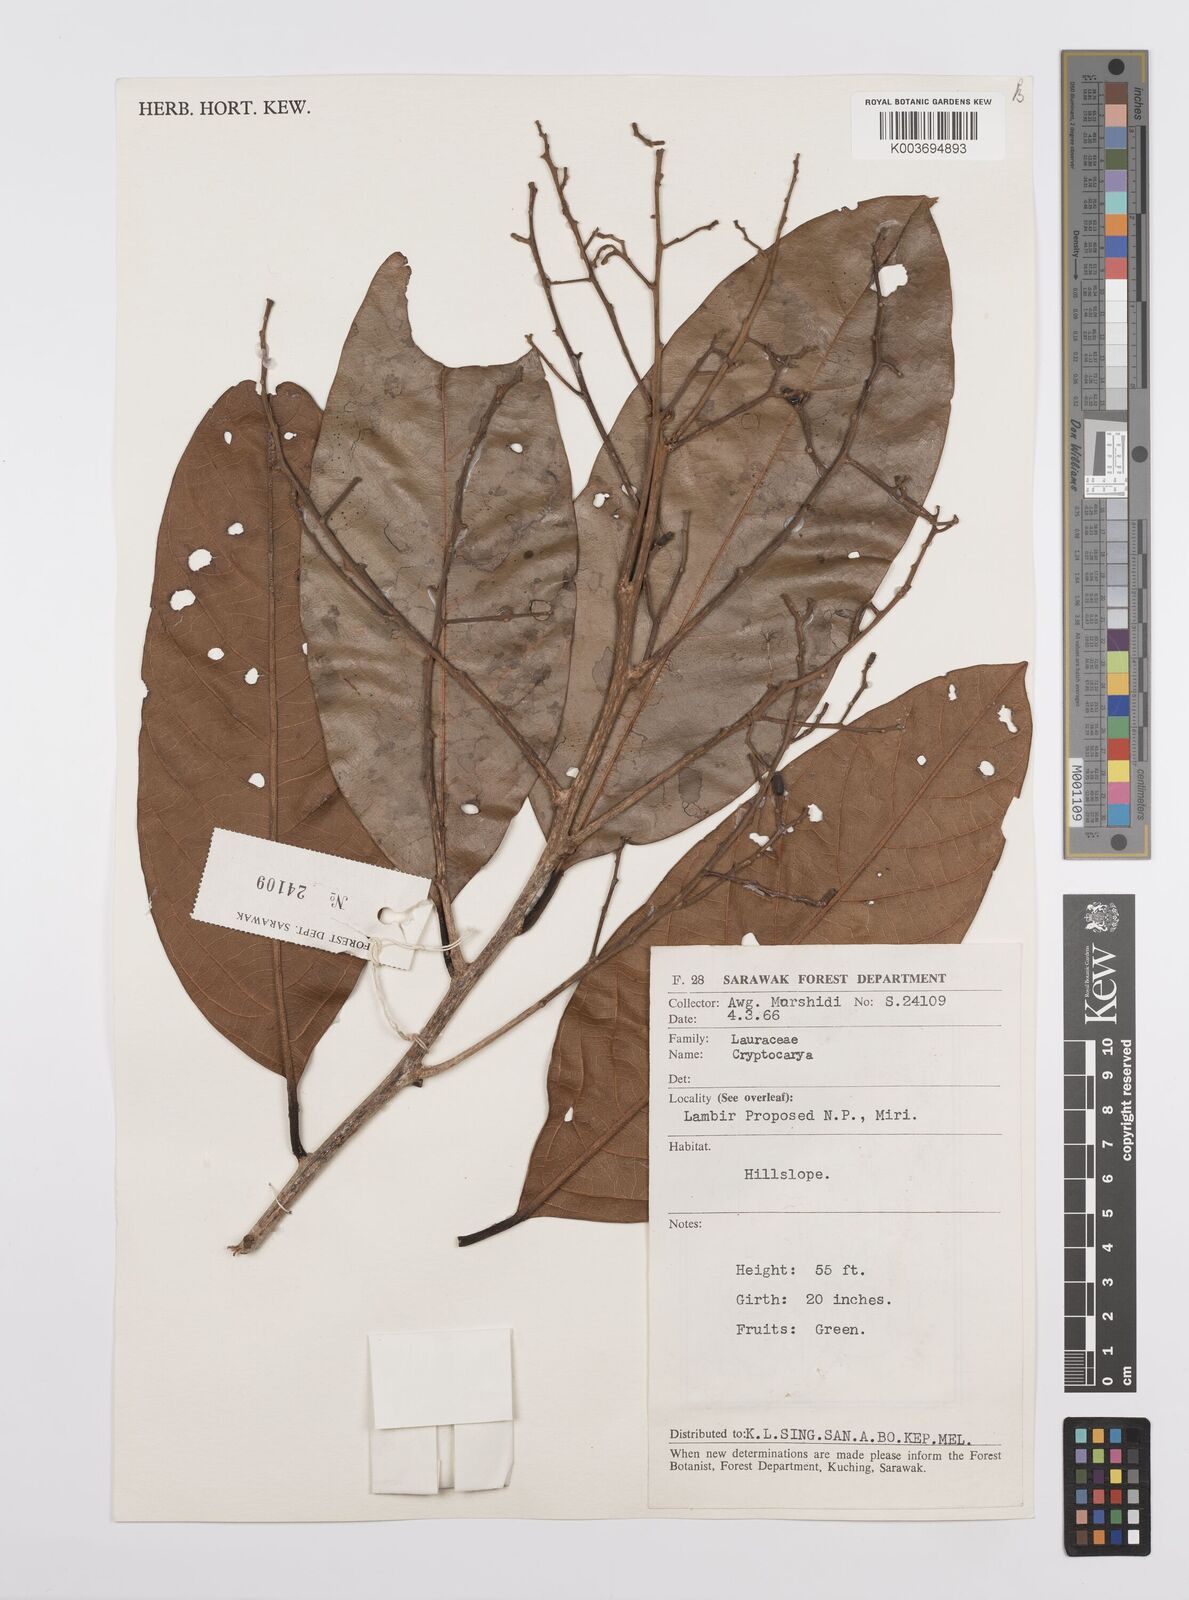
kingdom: Plantae
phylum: Tracheophyta
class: Magnoliopsida
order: Laurales
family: Lauraceae
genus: Cryptocarya
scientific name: Cryptocarya
